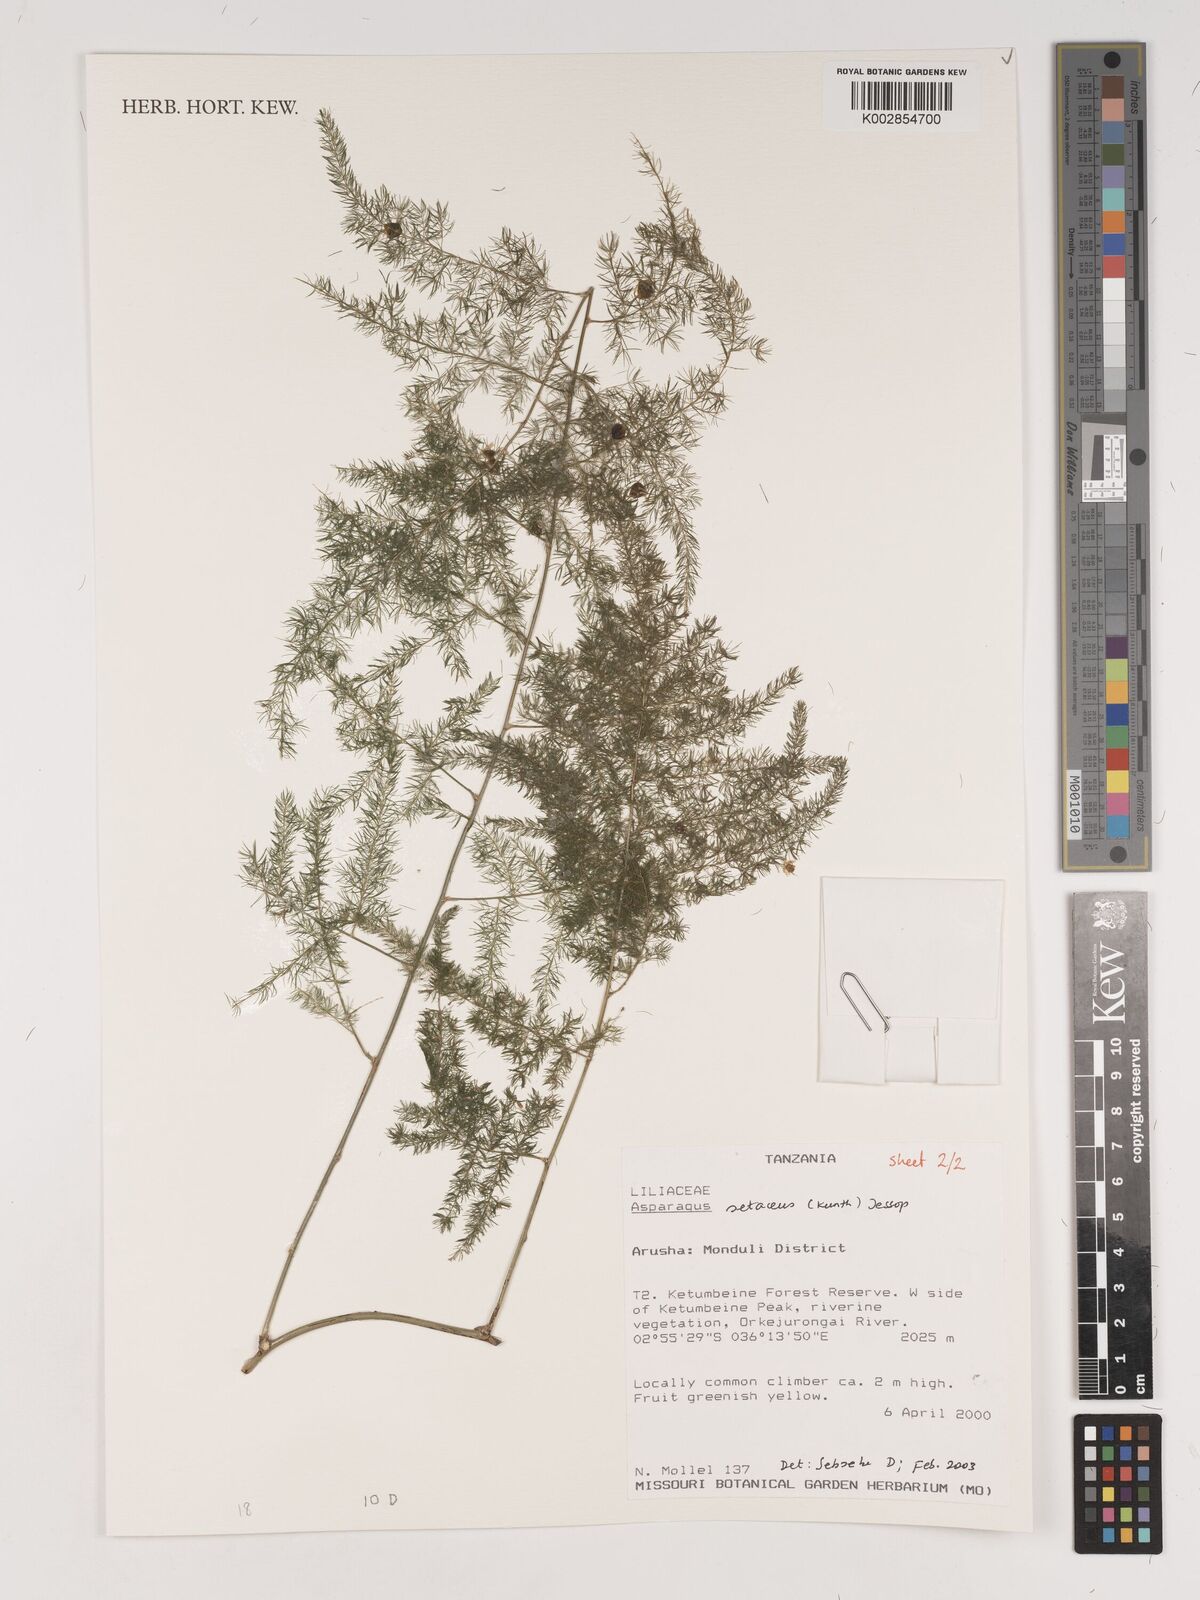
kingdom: Plantae
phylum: Tracheophyta
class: Liliopsida
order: Asparagales
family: Asparagaceae
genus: Asparagus
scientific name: Asparagus setaceus
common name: Common asparagus fern
